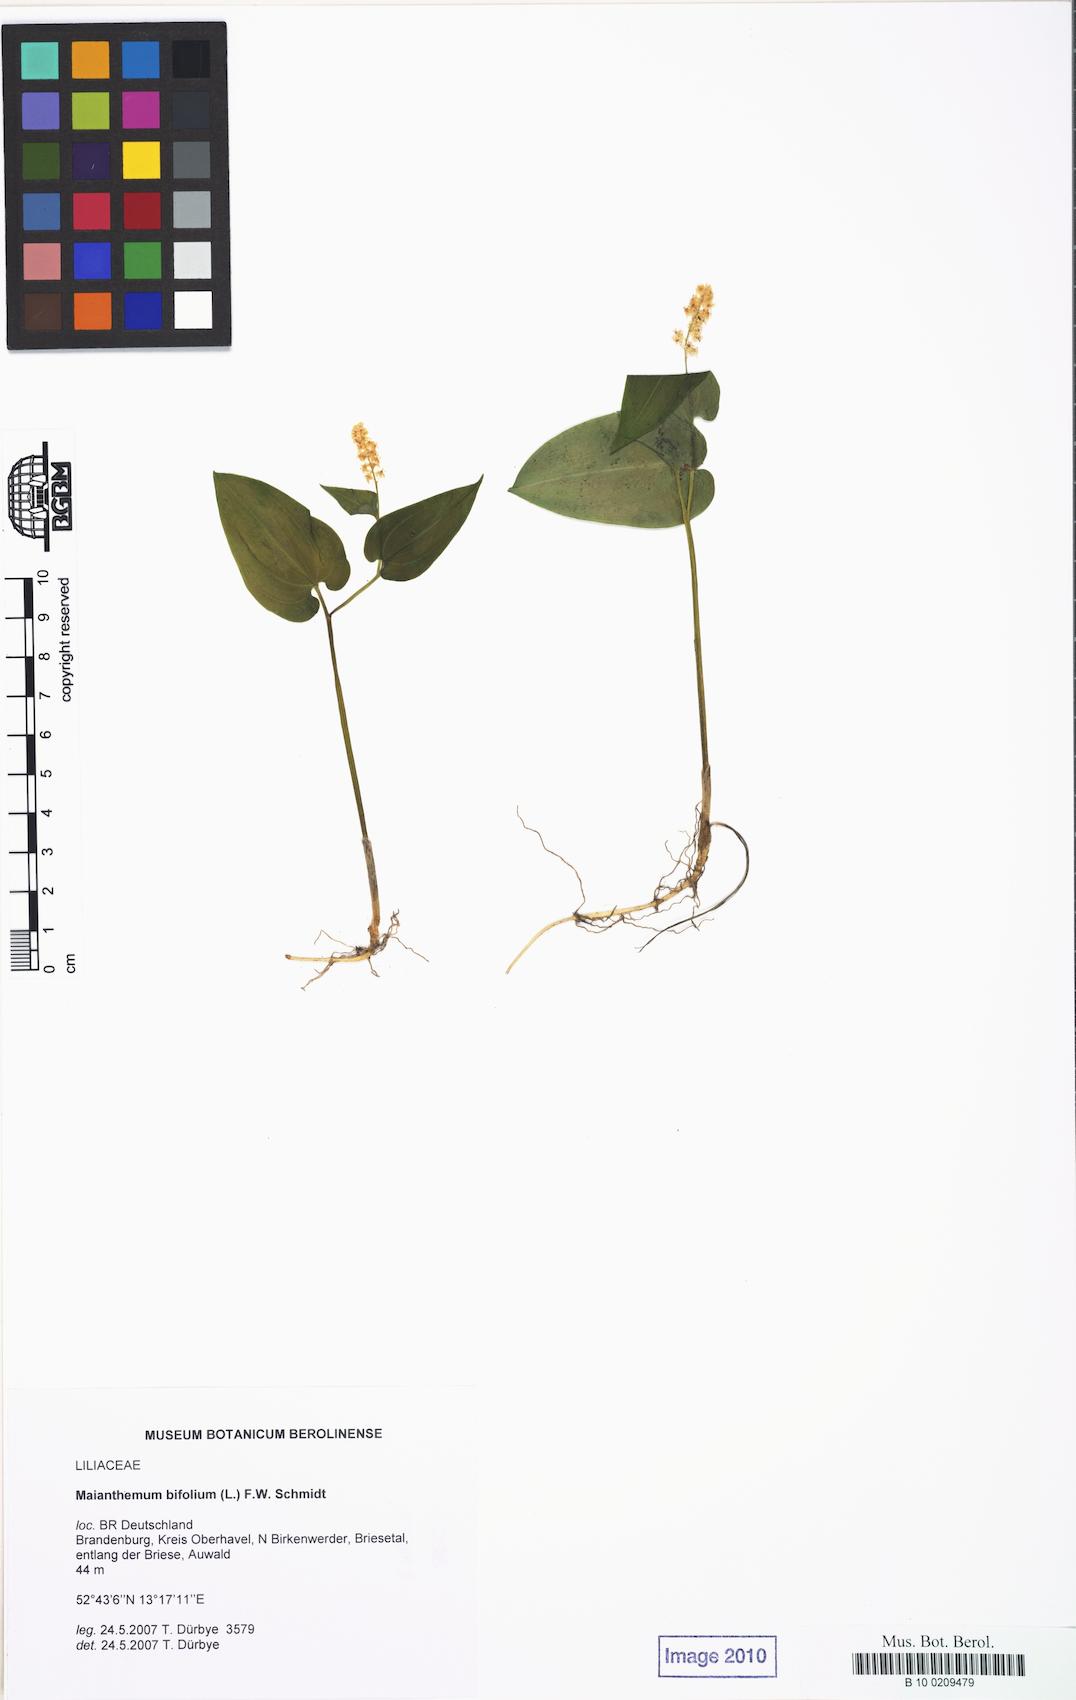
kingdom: Plantae
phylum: Tracheophyta
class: Liliopsida
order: Asparagales
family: Asparagaceae
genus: Maianthemum
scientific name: Maianthemum bifolium
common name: May lily
